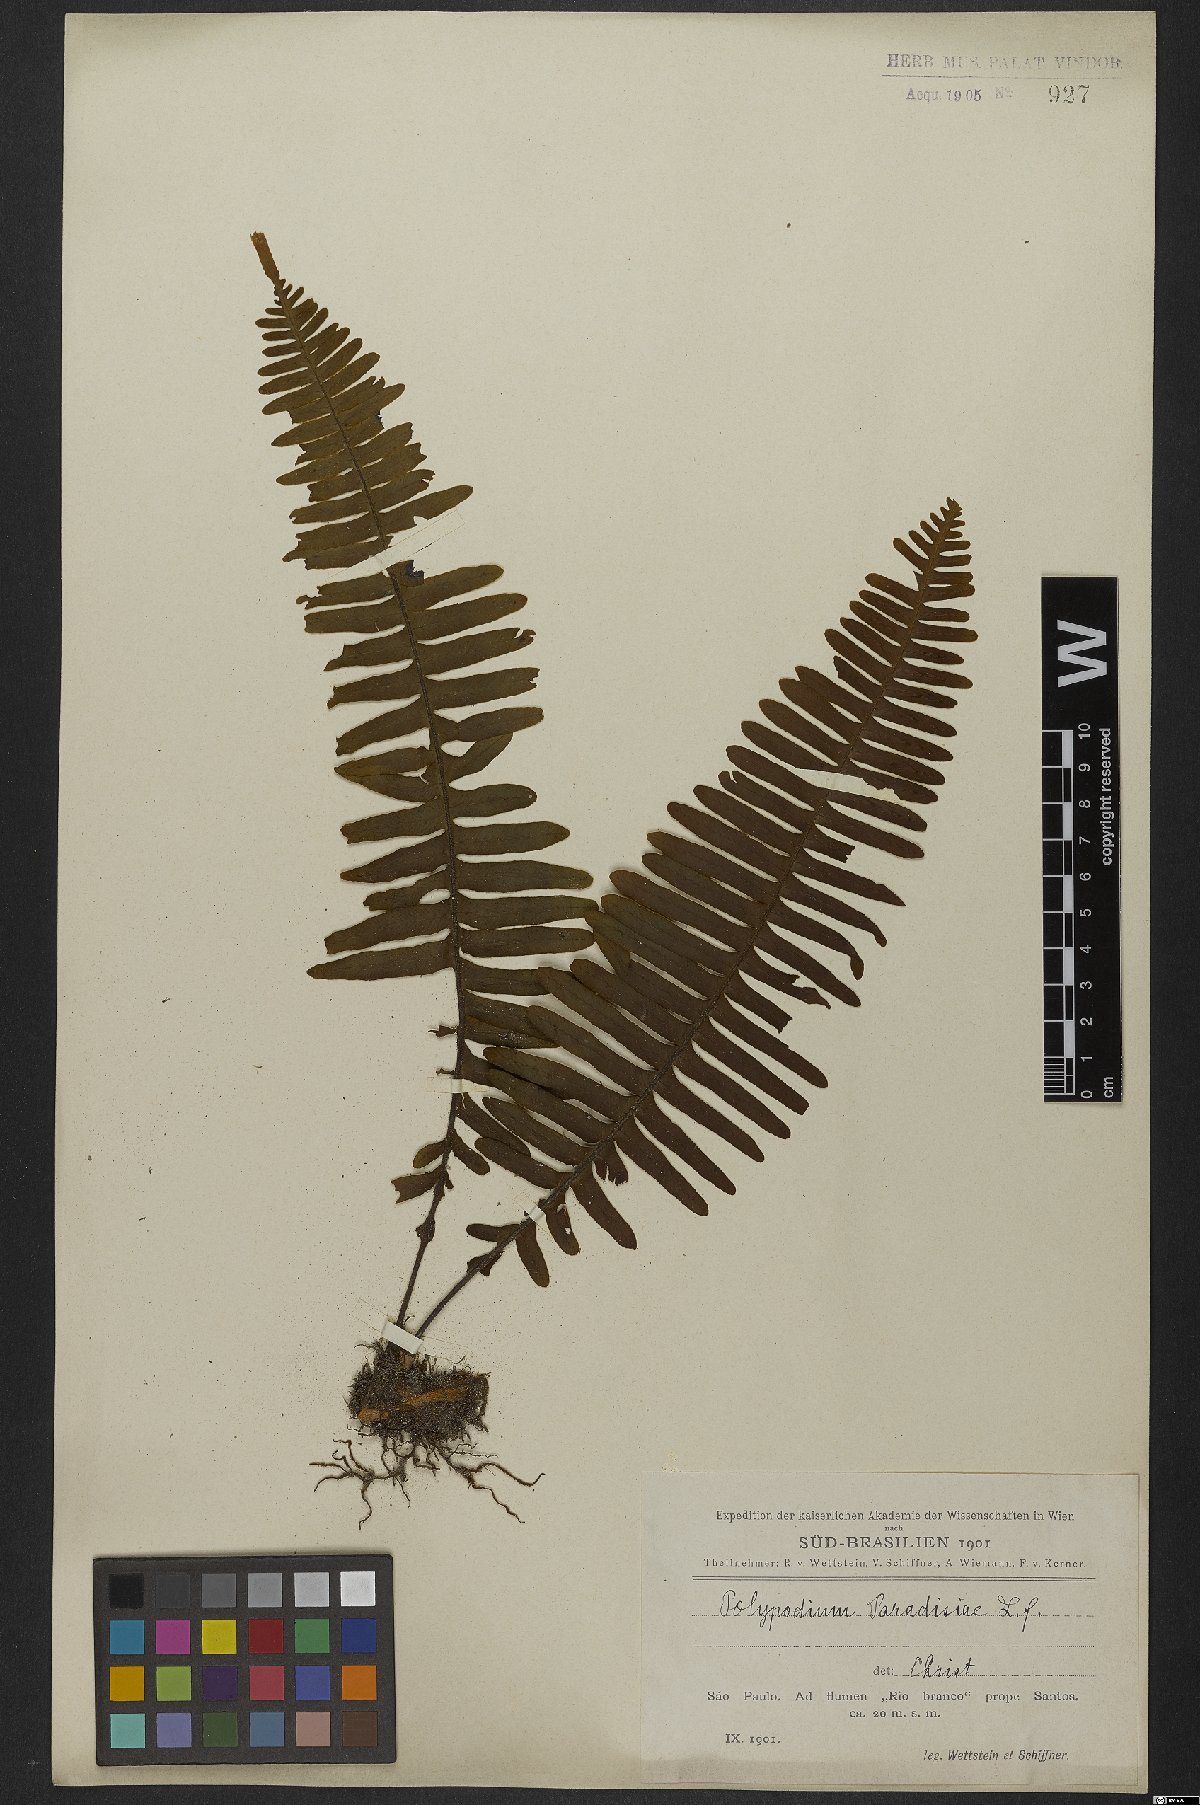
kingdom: Plantae
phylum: Tracheophyta
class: Polypodiopsida
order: Polypodiales
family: Polypodiaceae
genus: Pecluma
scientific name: Pecluma paradiseae
